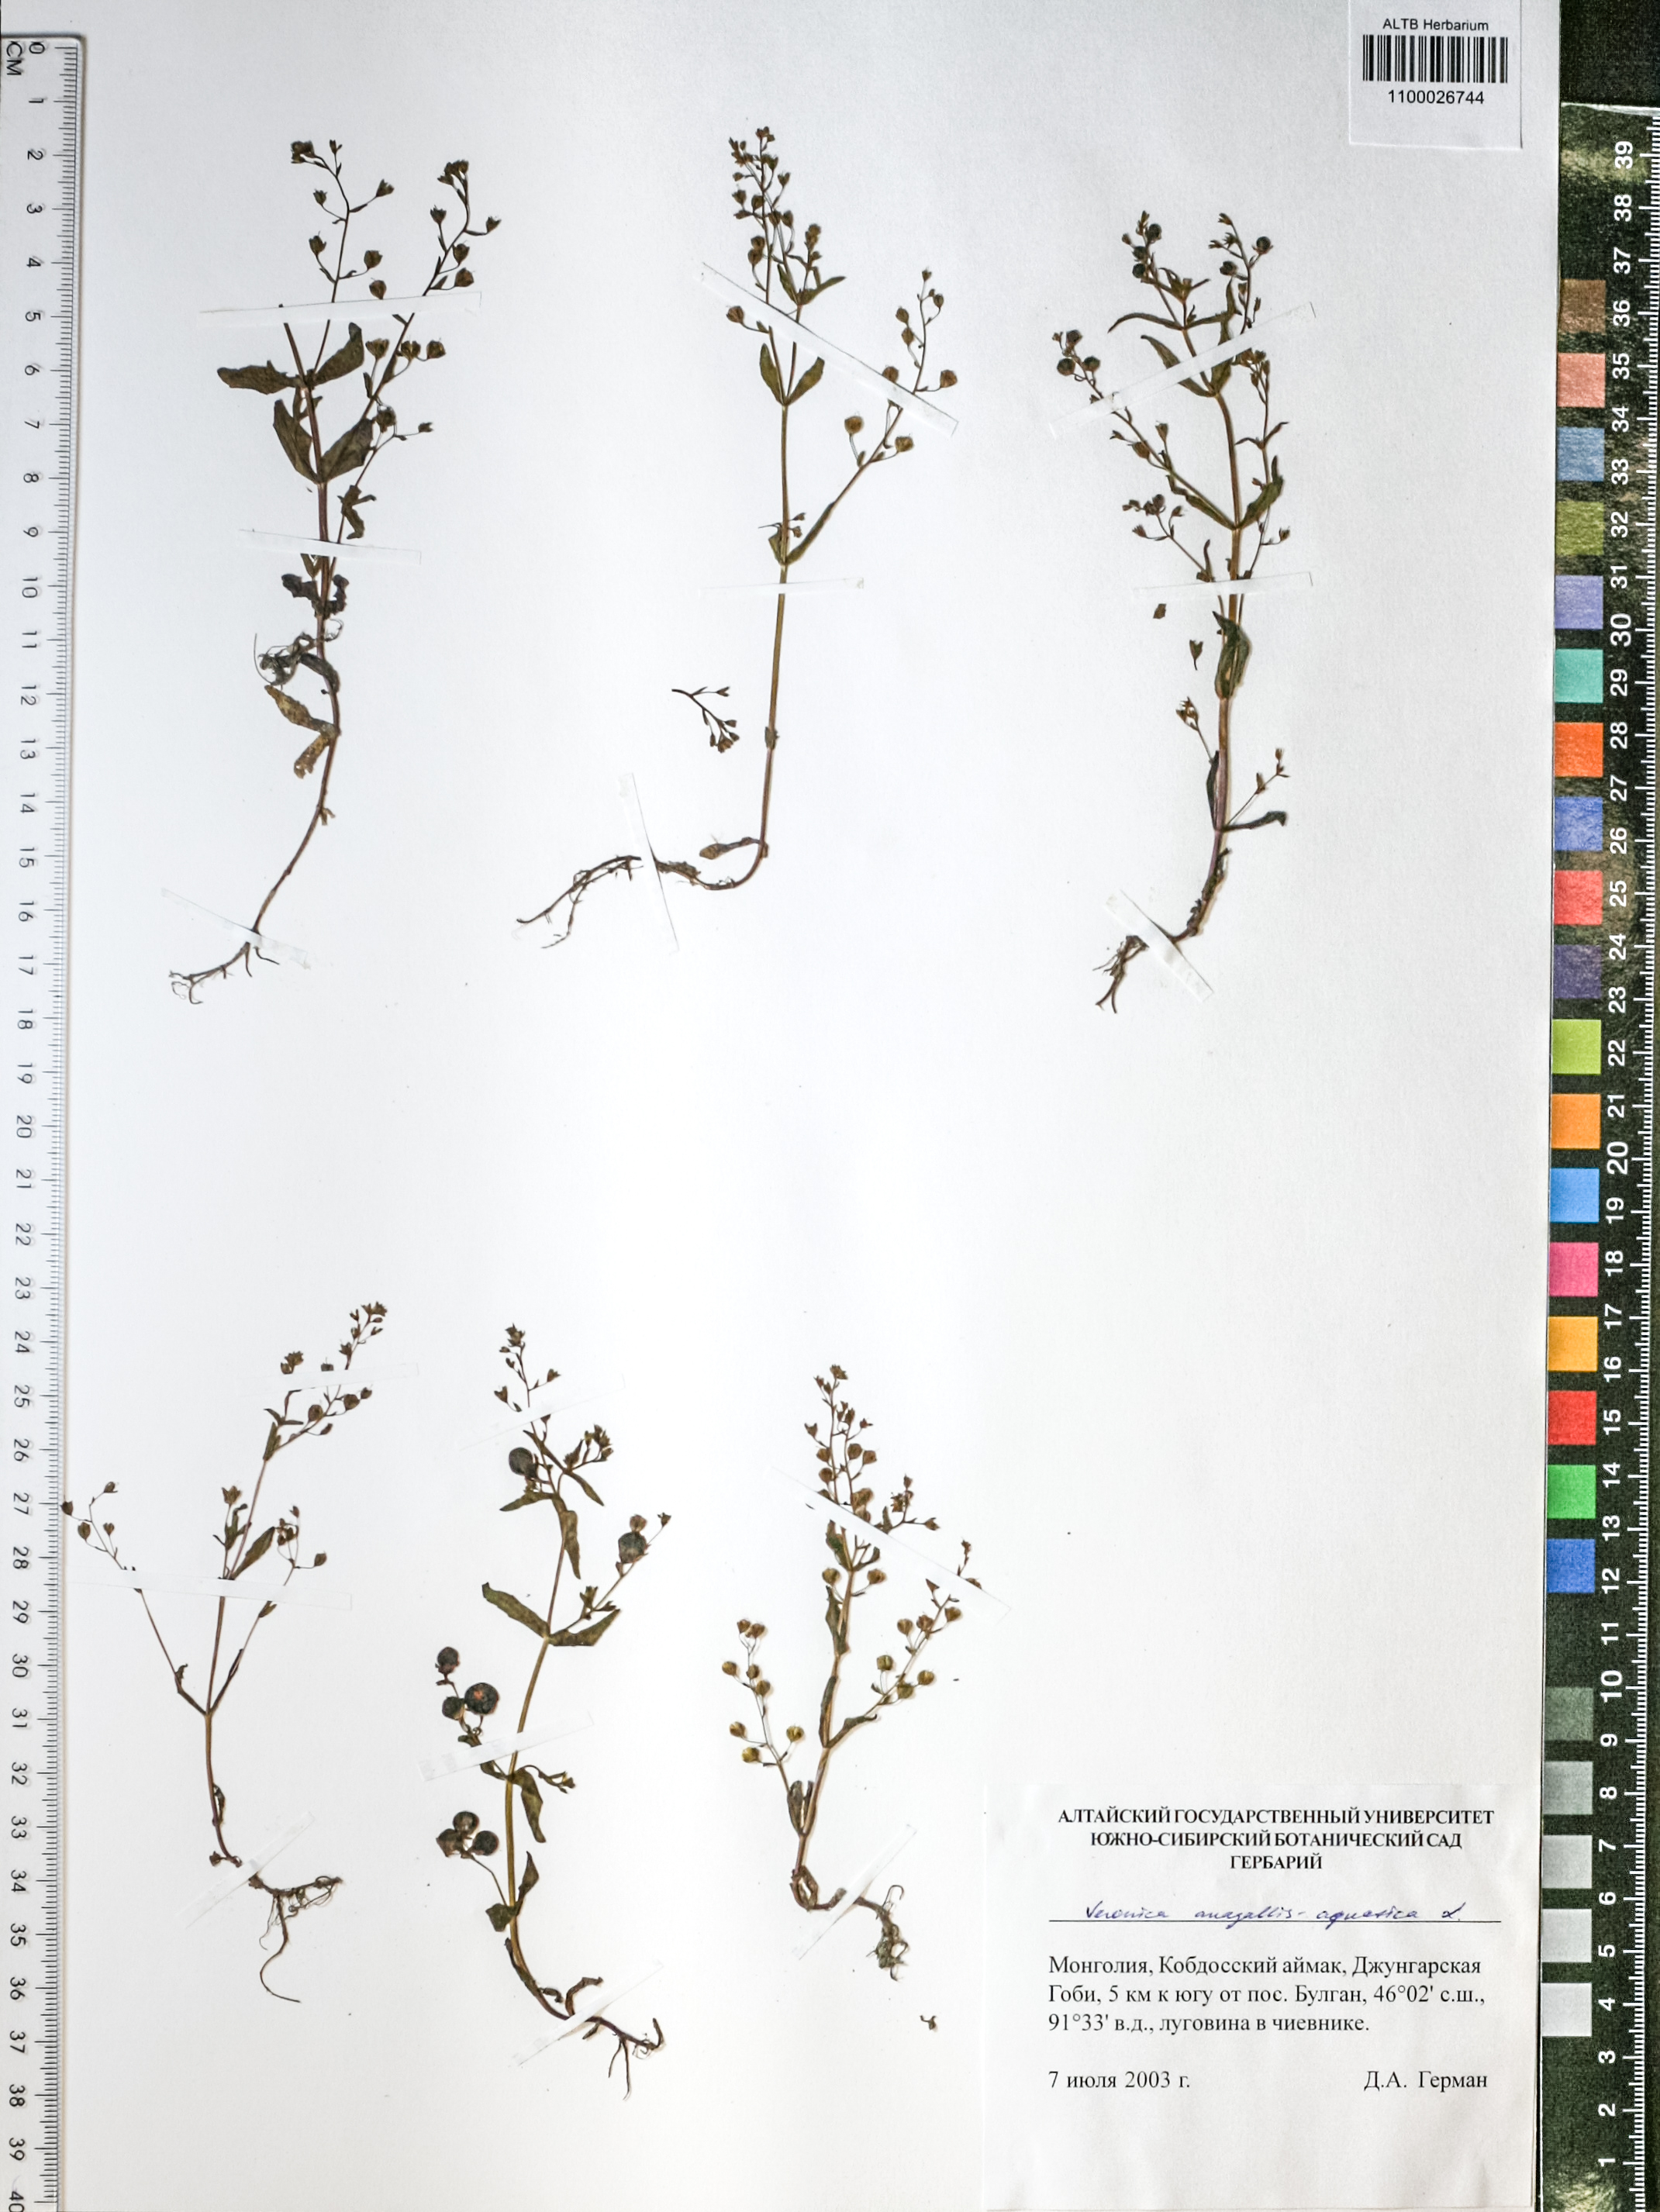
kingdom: Plantae
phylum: Tracheophyta
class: Magnoliopsida
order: Lamiales
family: Plantaginaceae
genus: Veronica
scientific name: Veronica anagallis-aquatica
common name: Water speedwell
